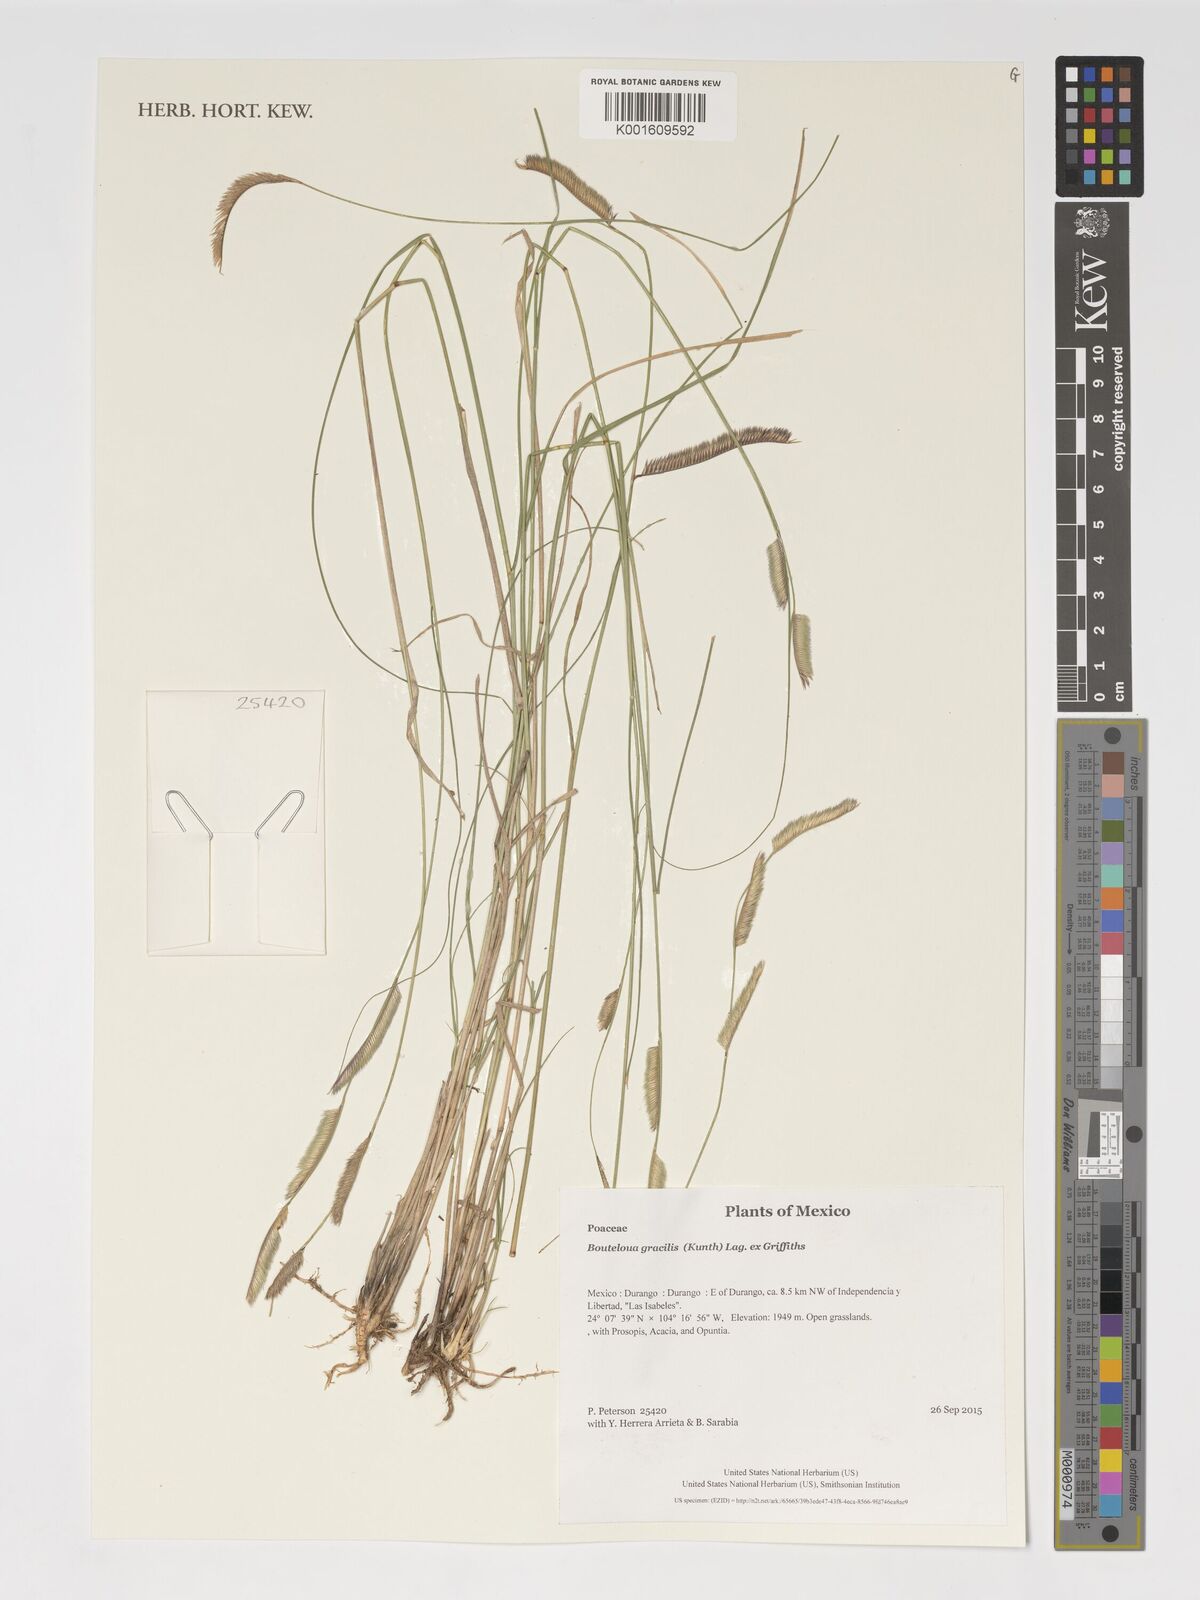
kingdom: Plantae
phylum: Tracheophyta
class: Liliopsida
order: Poales
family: Poaceae
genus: Bouteloua
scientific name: Bouteloua gracilis
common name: Blue grama
